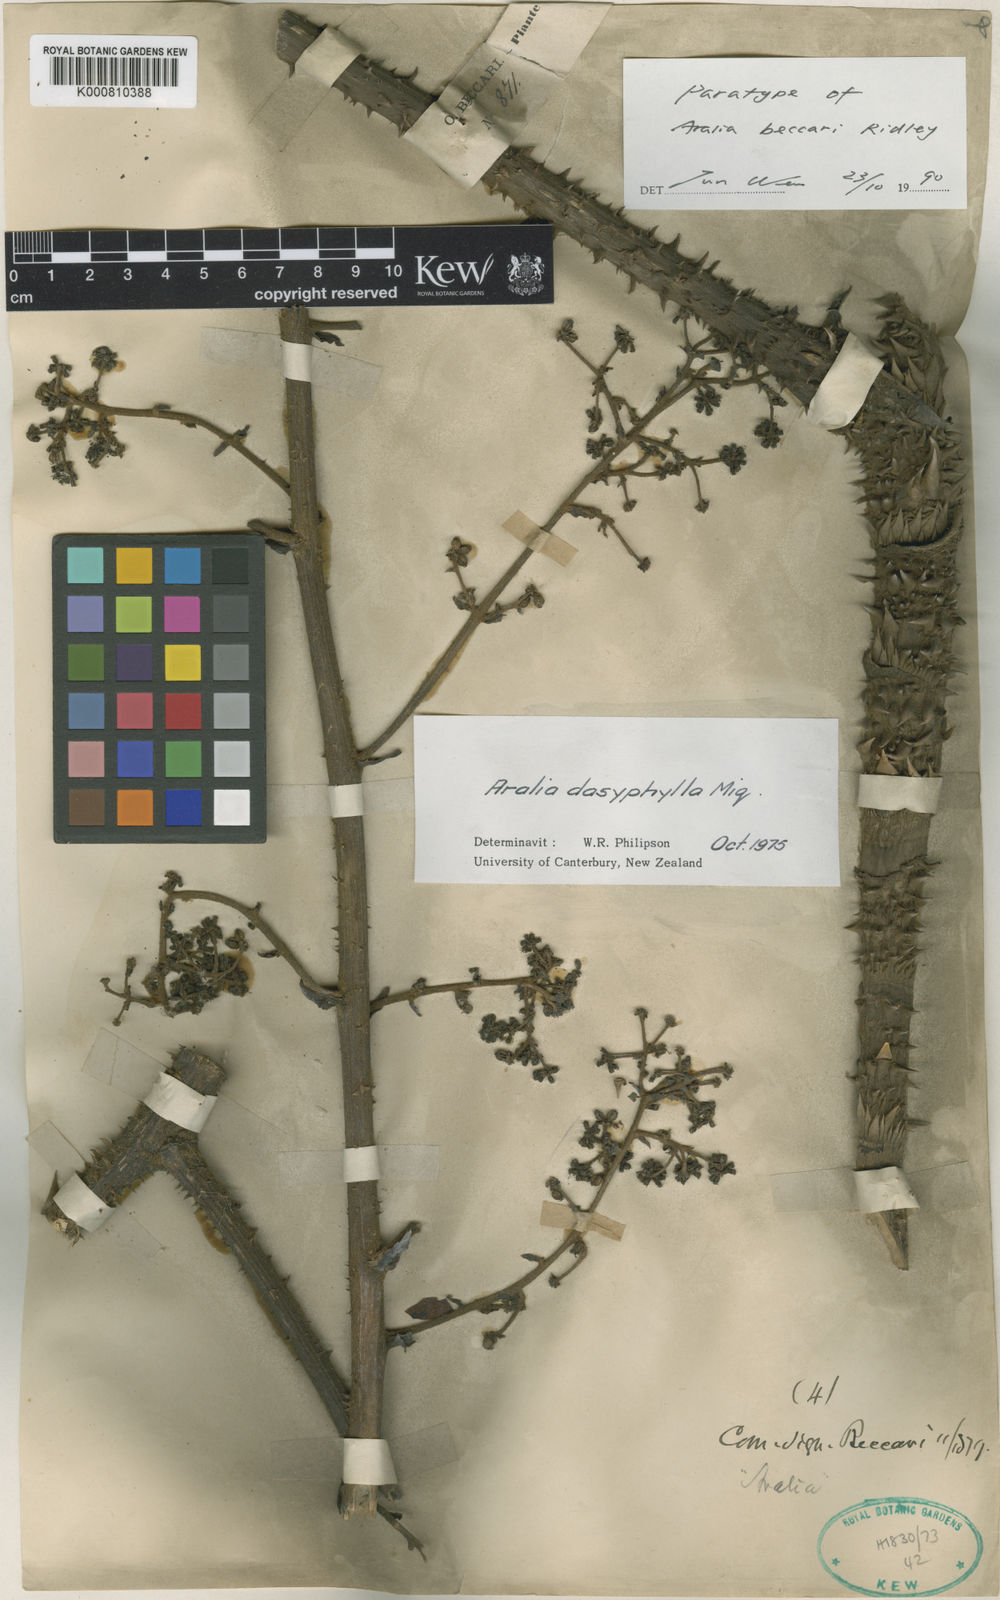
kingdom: Plantae
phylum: Tracheophyta
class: Magnoliopsida
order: Apiales
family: Araliaceae
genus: Aralia
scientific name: Aralia dasyphylla
